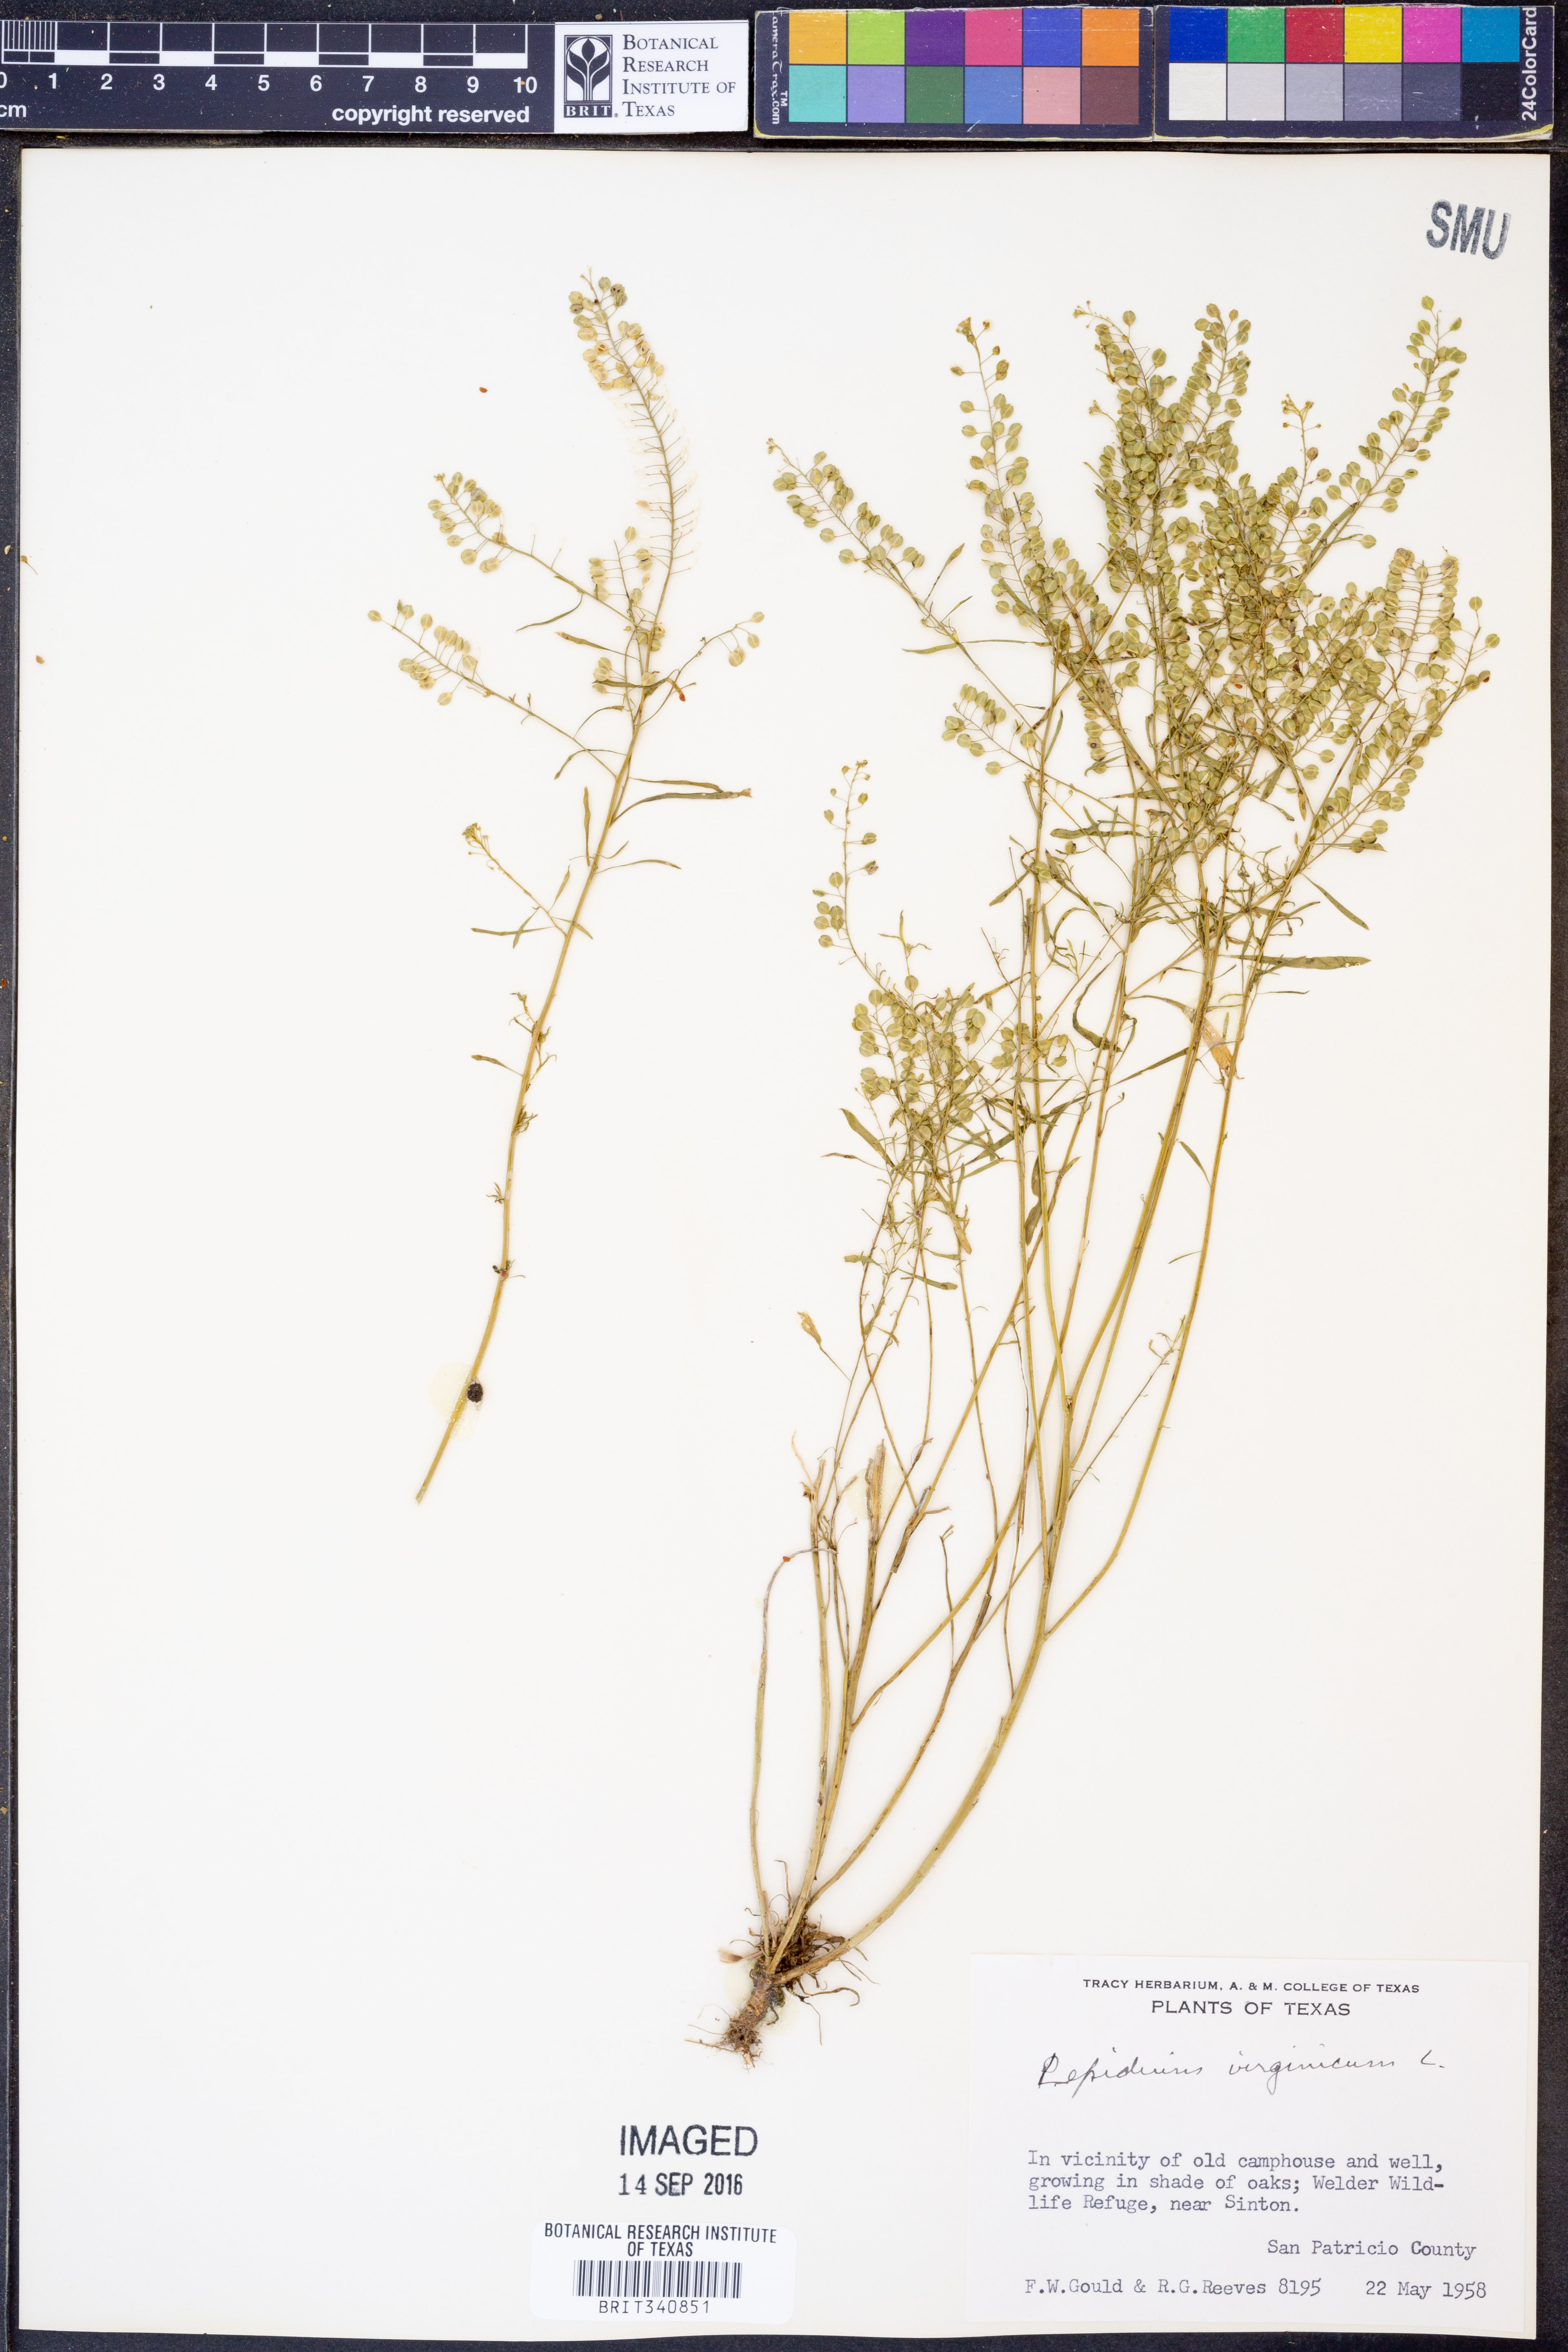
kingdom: Plantae
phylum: Tracheophyta
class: Magnoliopsida
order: Brassicales
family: Brassicaceae
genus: Lepidium
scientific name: Lepidium virginicum
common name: Least pepperwort
